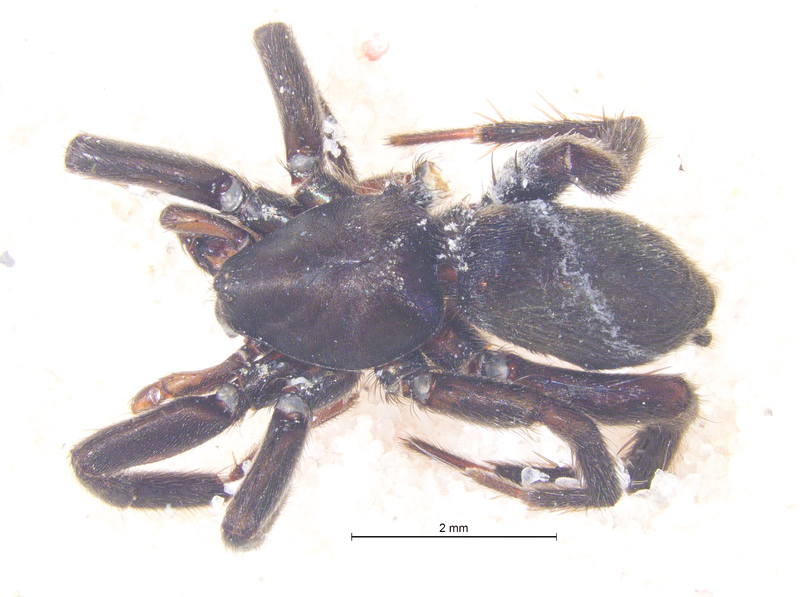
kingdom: Animalia
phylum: Arthropoda
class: Arachnida
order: Araneae
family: Gnaphosidae
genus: Zelotes
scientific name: Zelotes latreillei
